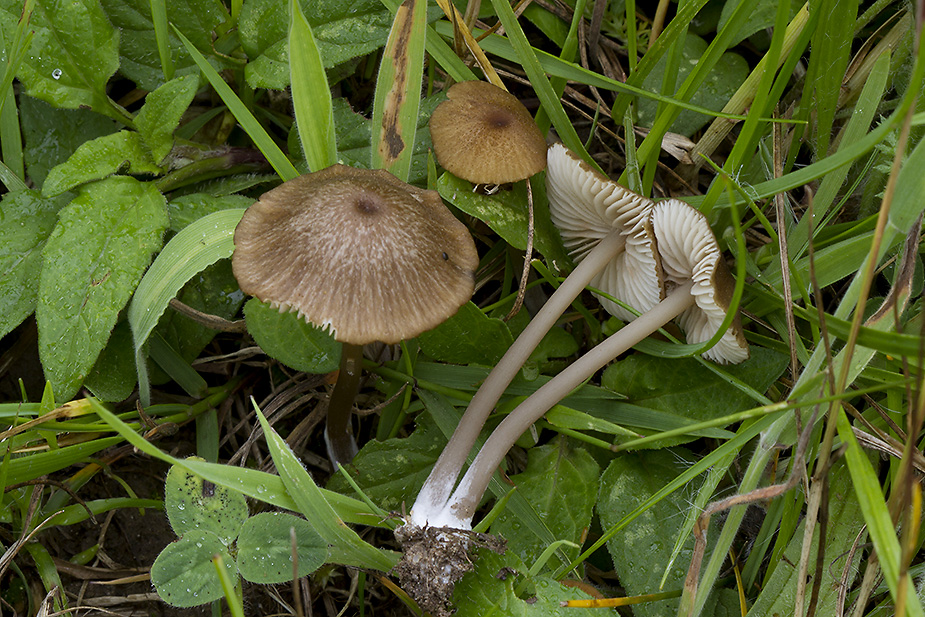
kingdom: Fungi
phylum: Basidiomycota
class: Agaricomycetes
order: Agaricales
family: Entolomataceae
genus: Entoloma
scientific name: Entoloma longistriatum
